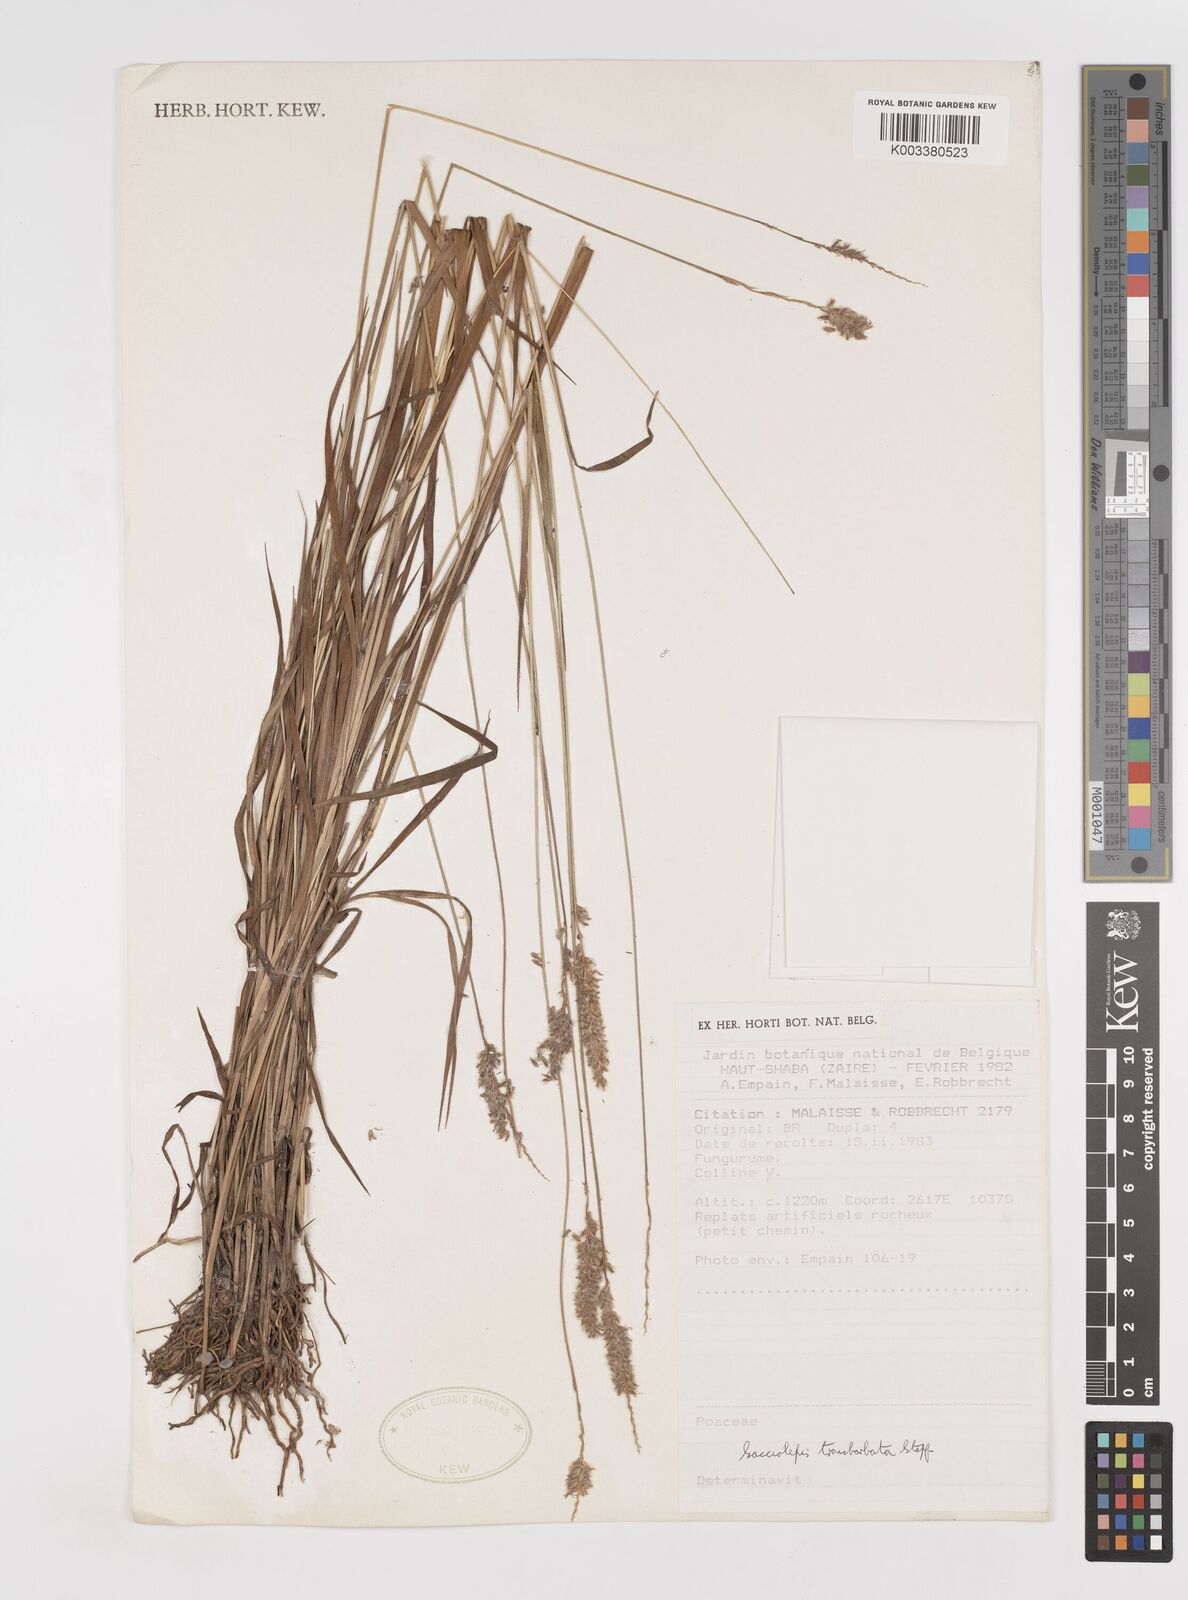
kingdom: Plantae
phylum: Tracheophyta
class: Liliopsida
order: Poales
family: Poaceae
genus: Sacciolepis
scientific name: Sacciolepis transbarbata
